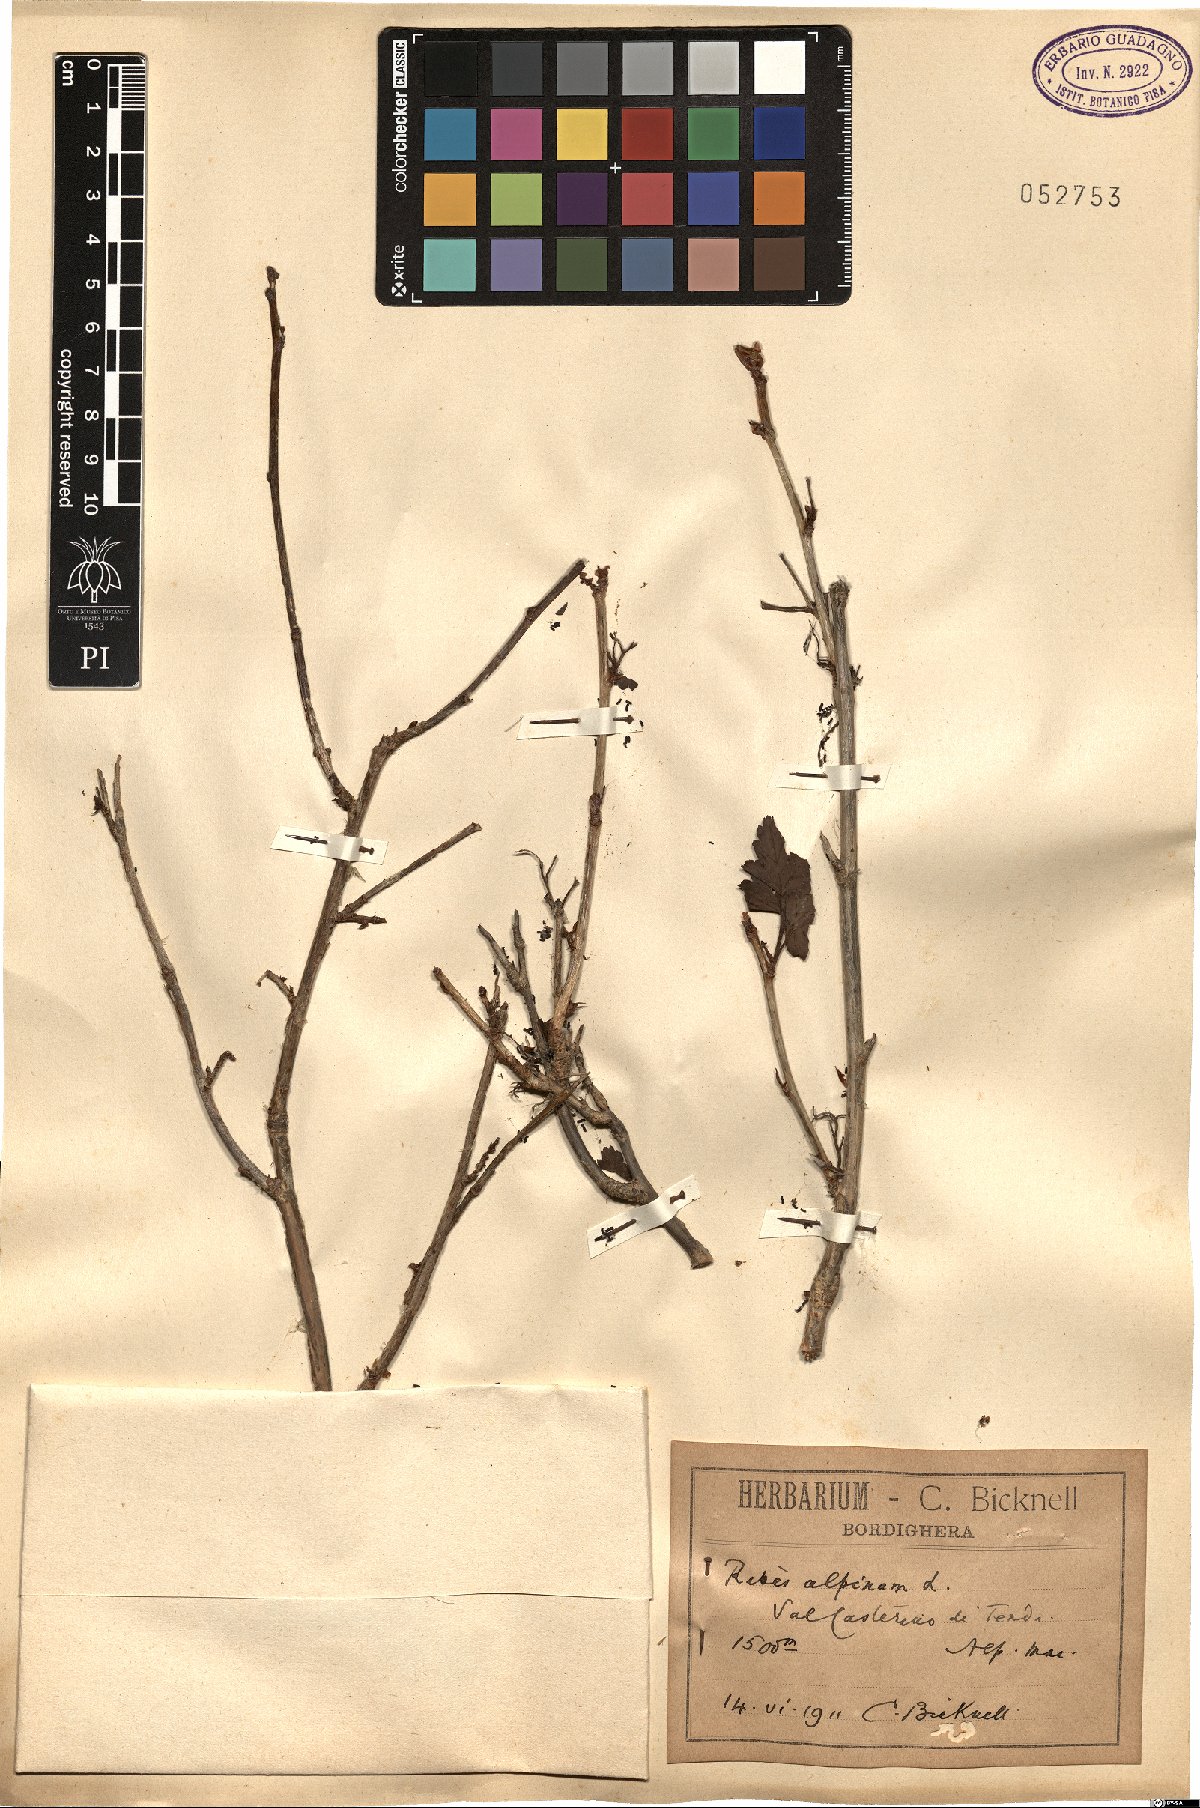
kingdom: Plantae
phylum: Tracheophyta
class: Magnoliopsida
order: Saxifragales
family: Grossulariaceae
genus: Ribes
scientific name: Ribes alpinum
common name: Alpine currant
